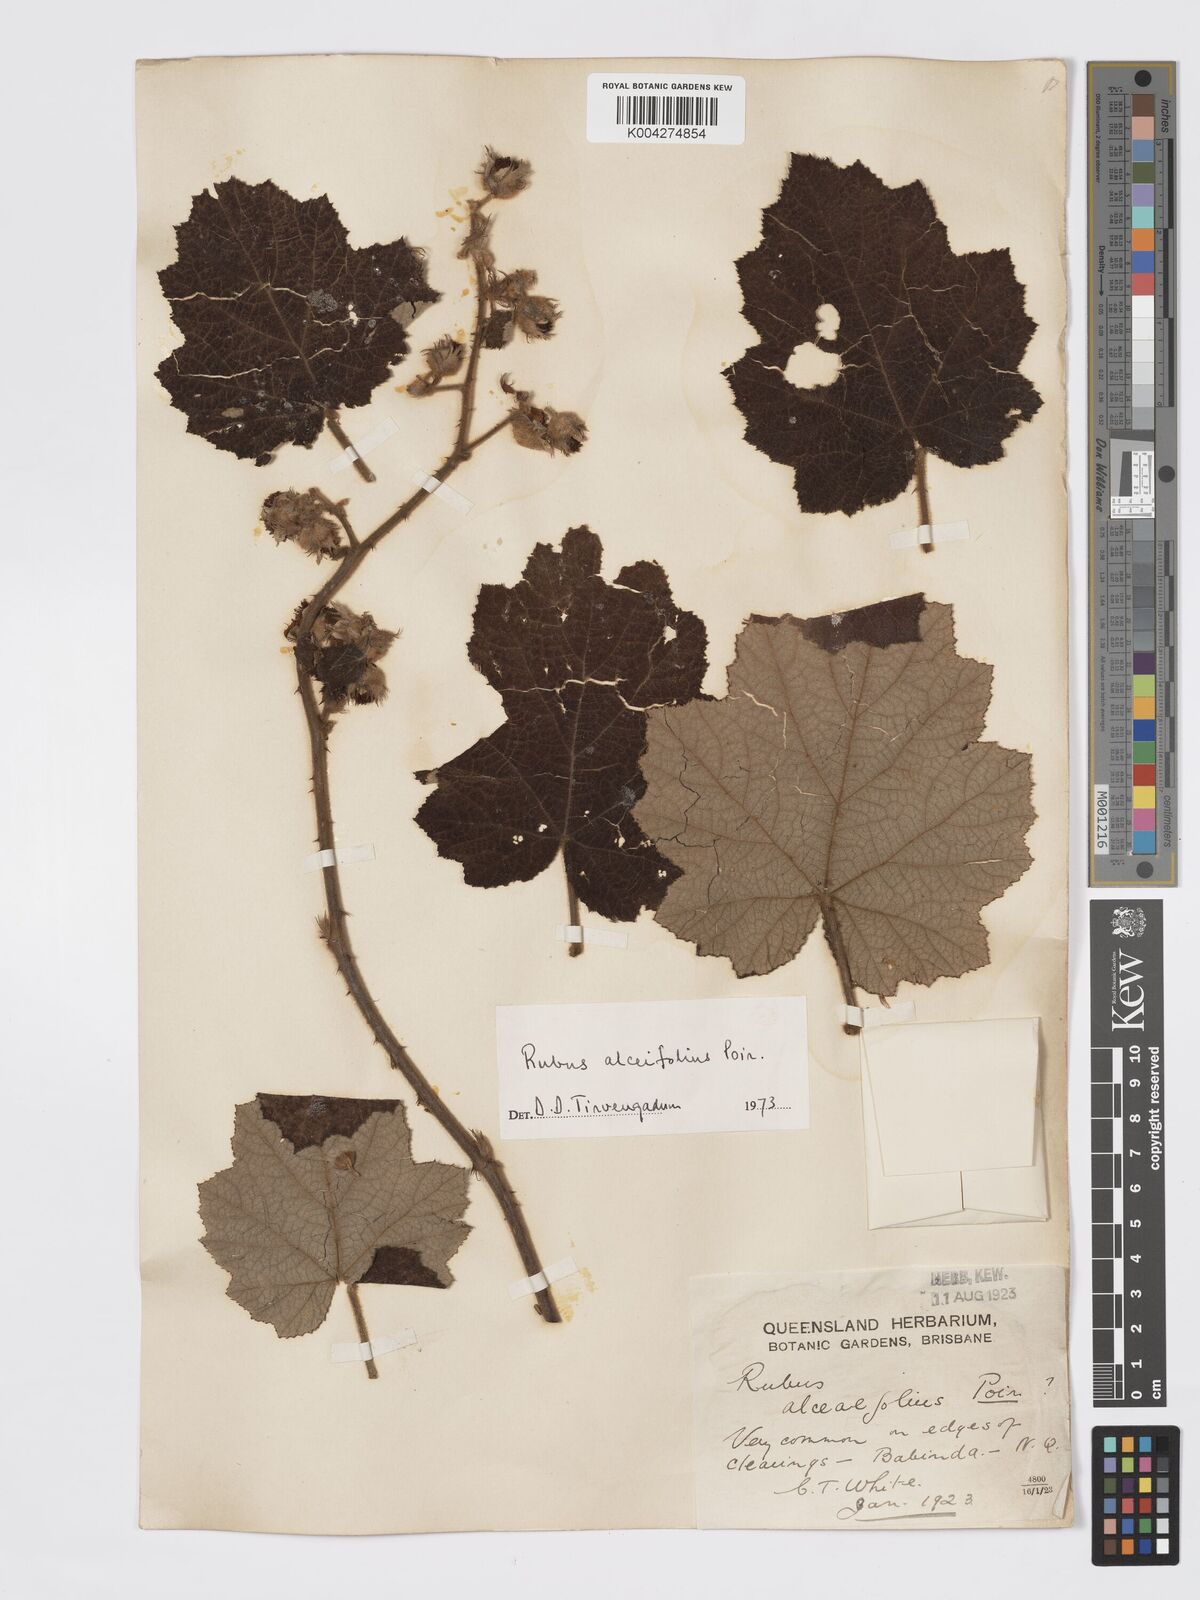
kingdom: Plantae
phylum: Tracheophyta
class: Magnoliopsida
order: Rosales
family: Rosaceae
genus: Rubus
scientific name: Rubus alceifolius
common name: Giant bramble
